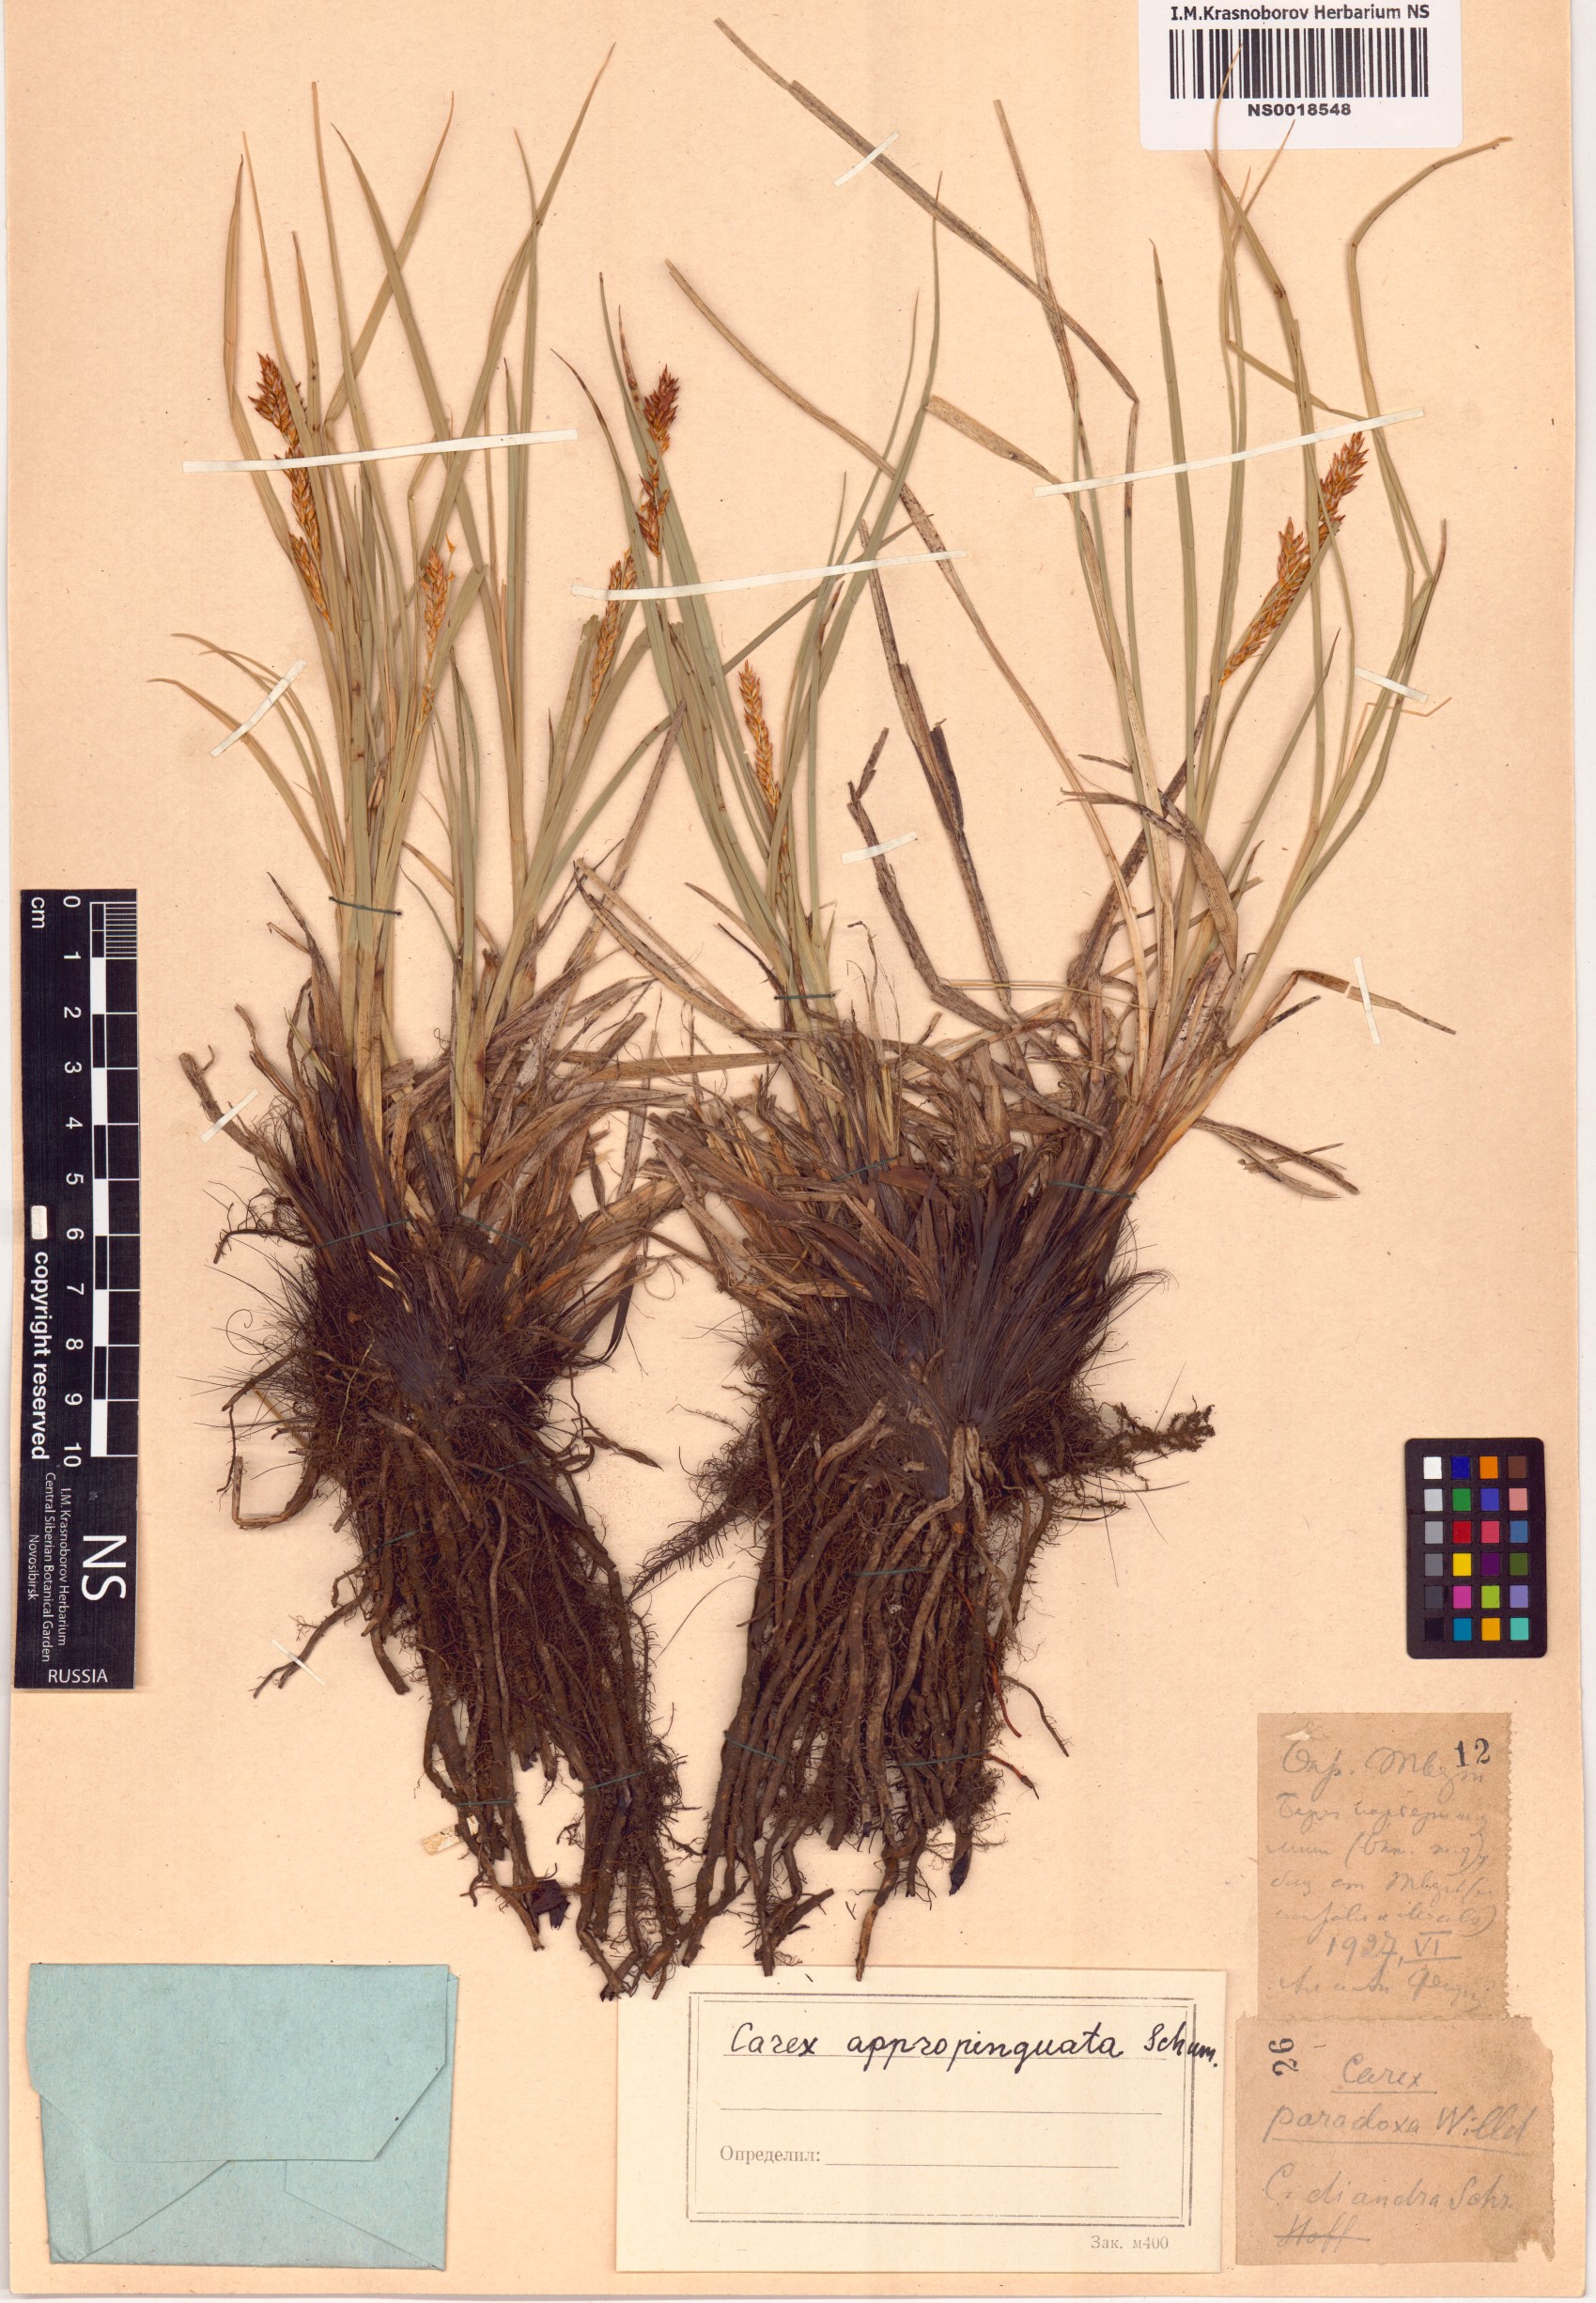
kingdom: Plantae
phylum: Tracheophyta
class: Liliopsida
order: Poales
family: Cyperaceae
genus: Carex
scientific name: Carex appropinquata
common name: Fibrous tussock-sedge
